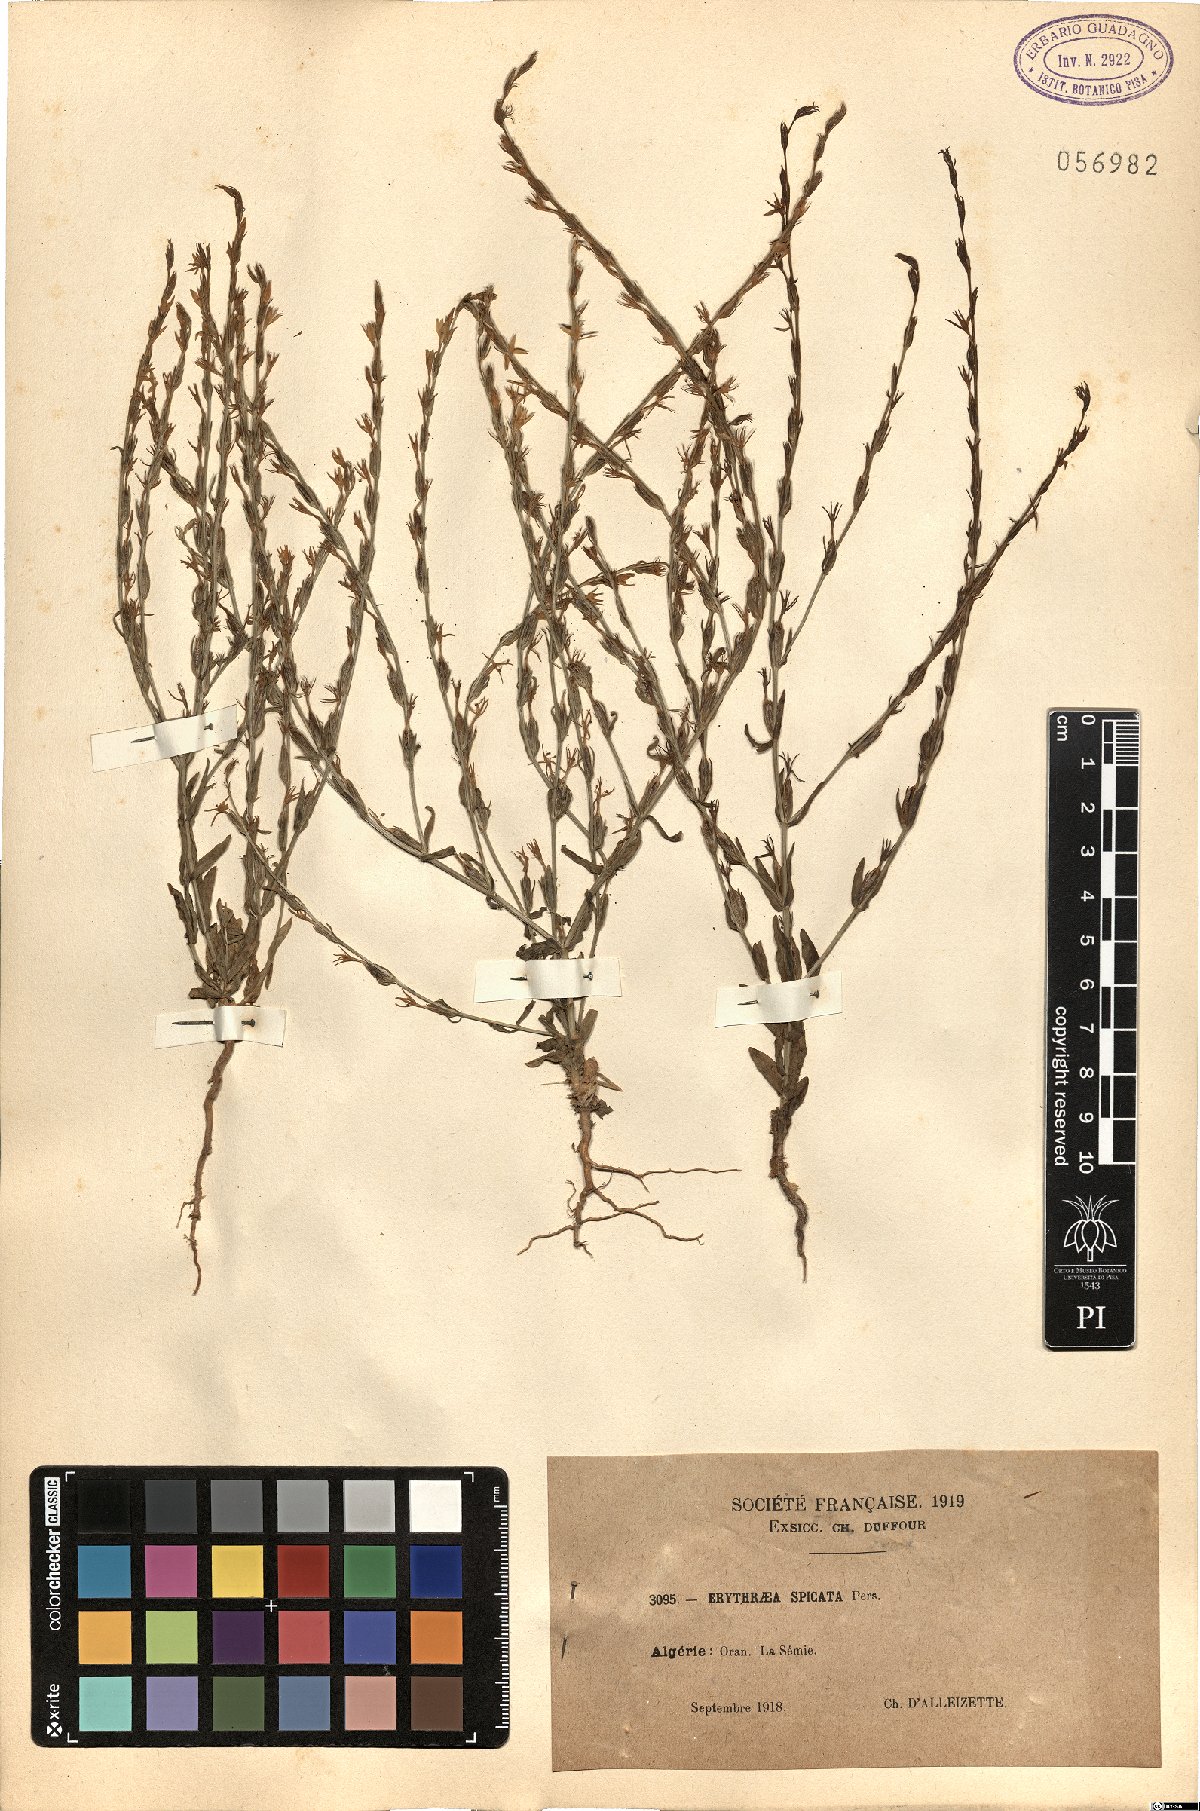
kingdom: Plantae
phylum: Tracheophyta
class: Magnoliopsida
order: Gentianales
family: Gentianaceae
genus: Schenkia
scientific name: Schenkia spicata
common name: Spiked centaury
